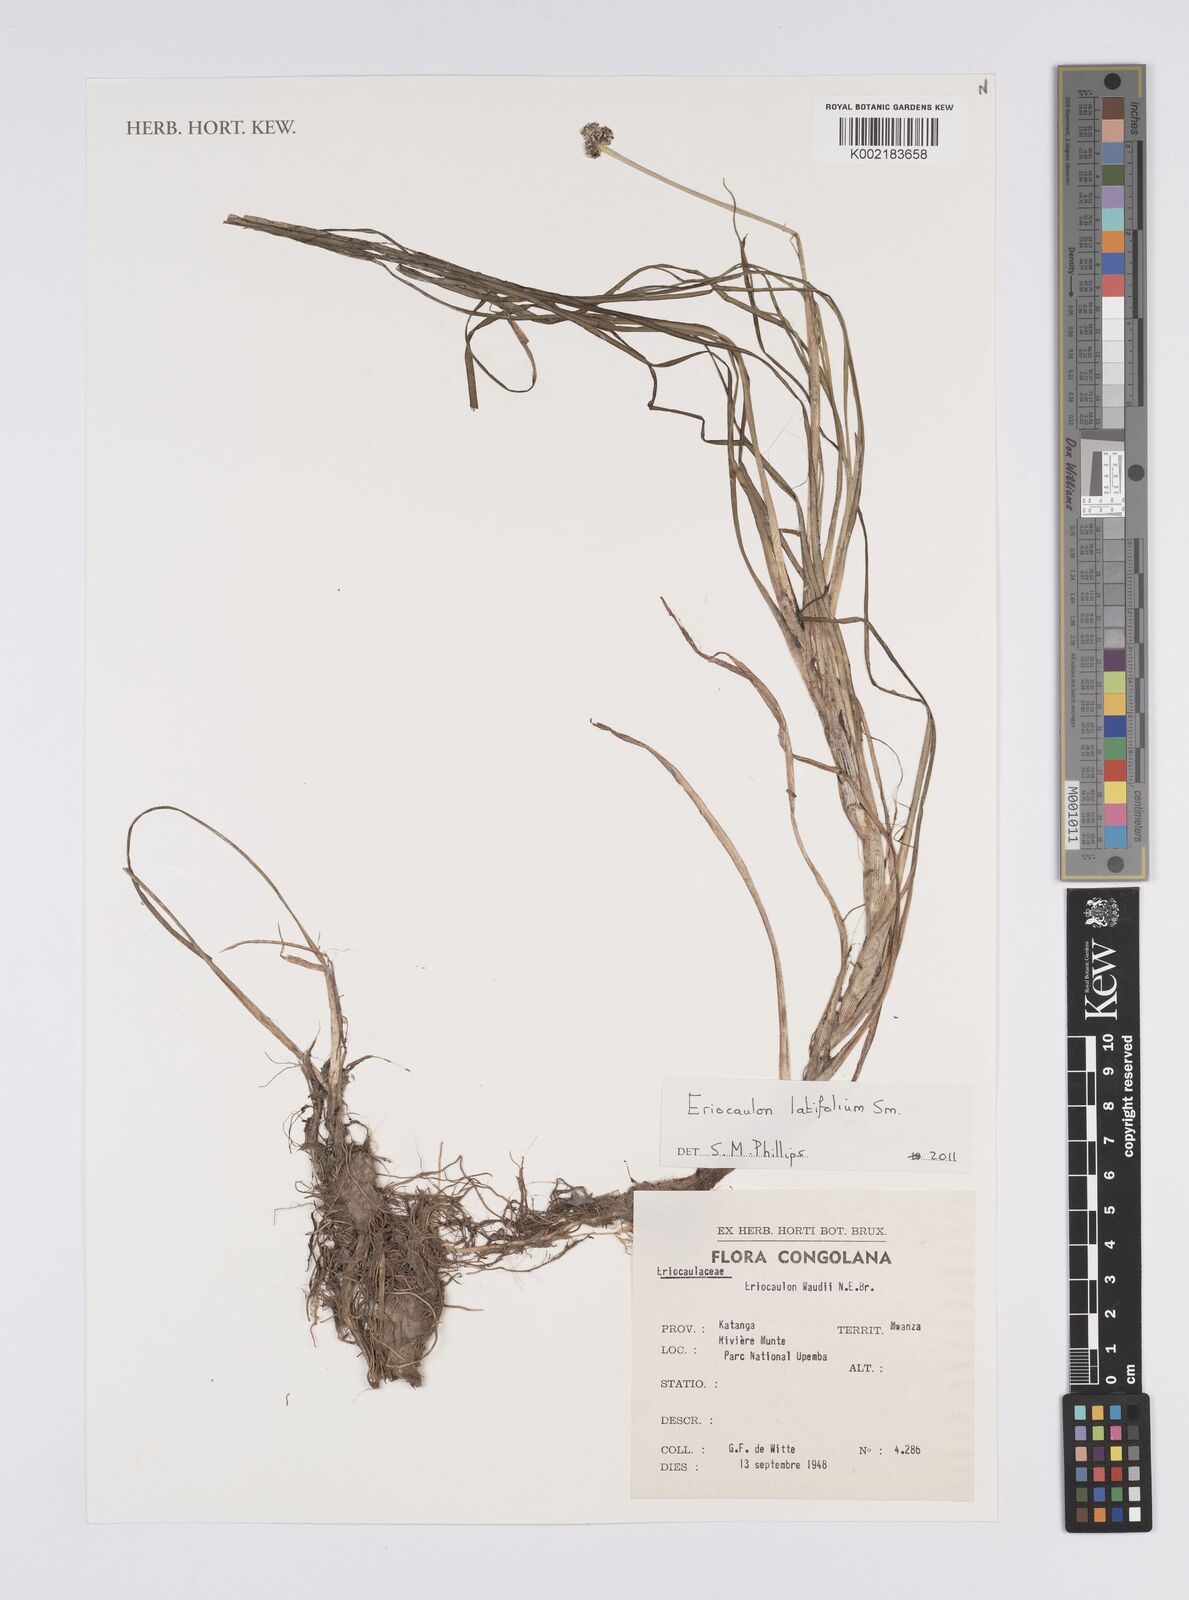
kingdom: Plantae
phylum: Tracheophyta
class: Liliopsida
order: Poales
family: Eriocaulaceae
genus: Eriocaulon
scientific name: Eriocaulon latifolium
